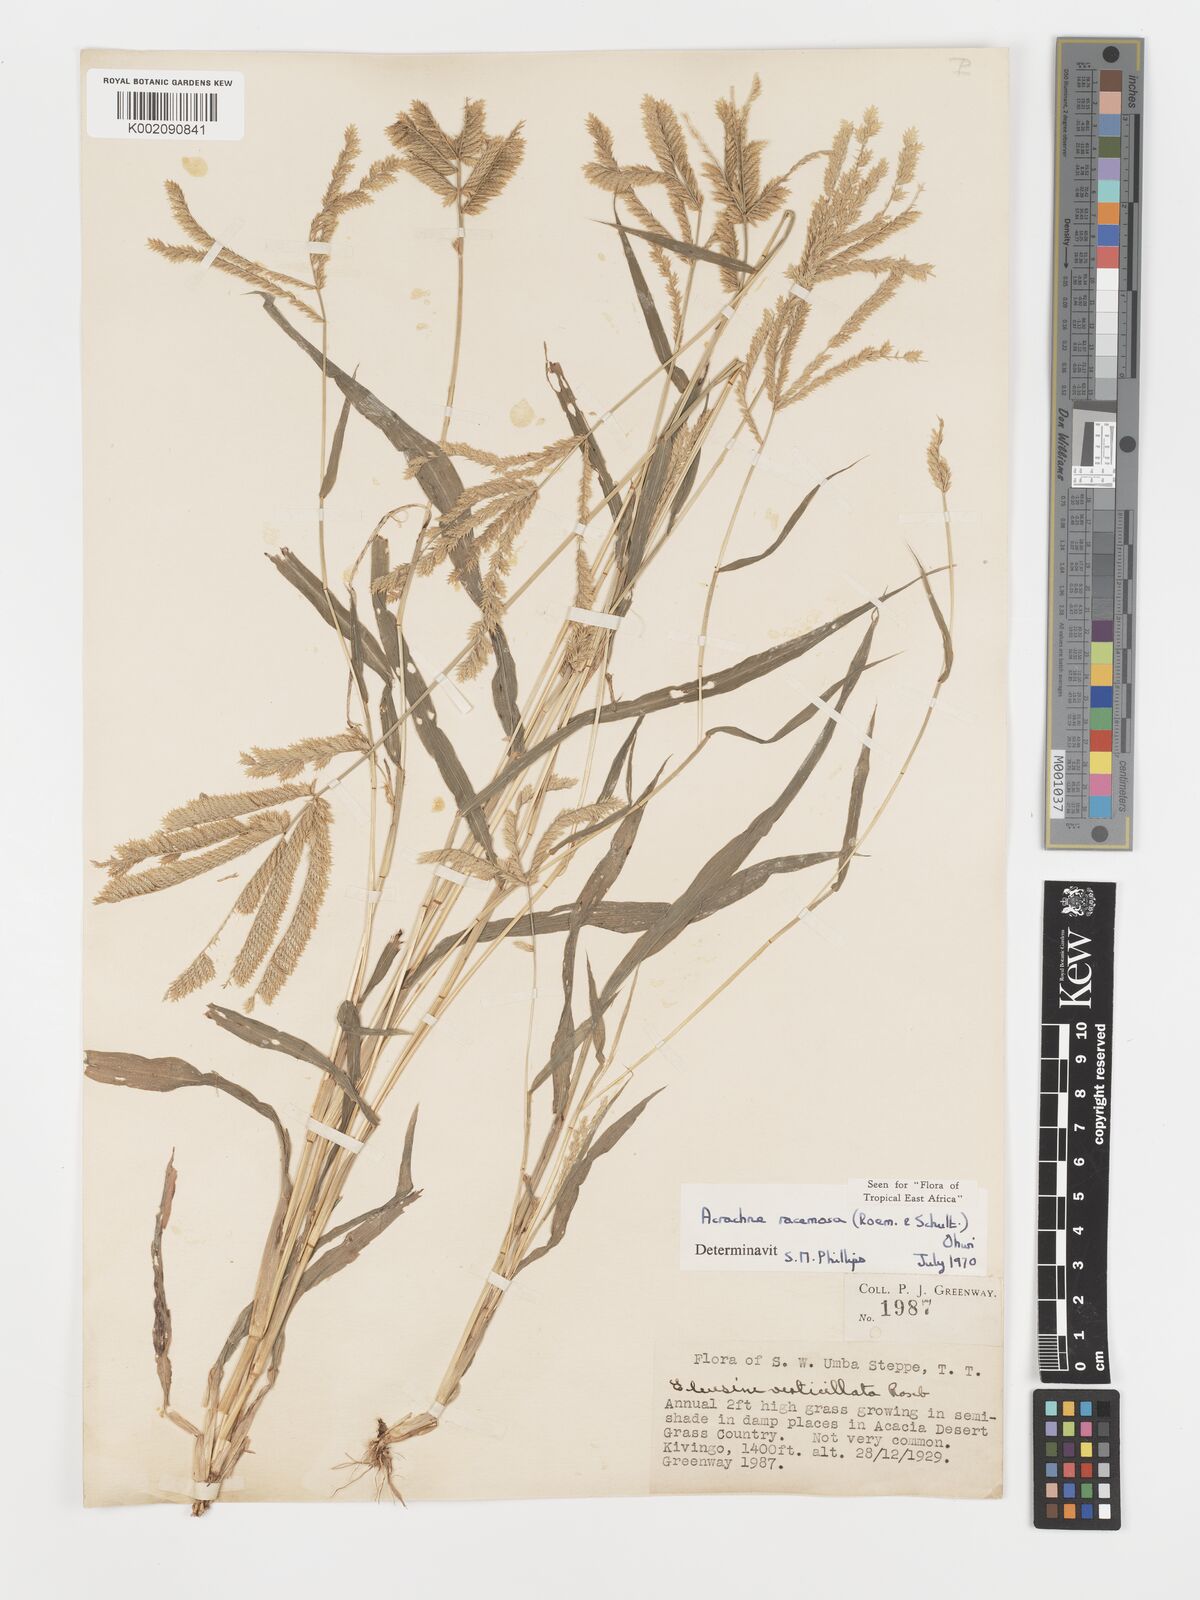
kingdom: Plantae
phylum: Tracheophyta
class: Liliopsida
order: Poales
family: Poaceae
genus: Acrachne
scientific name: Acrachne racemosa
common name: Goosegrass
